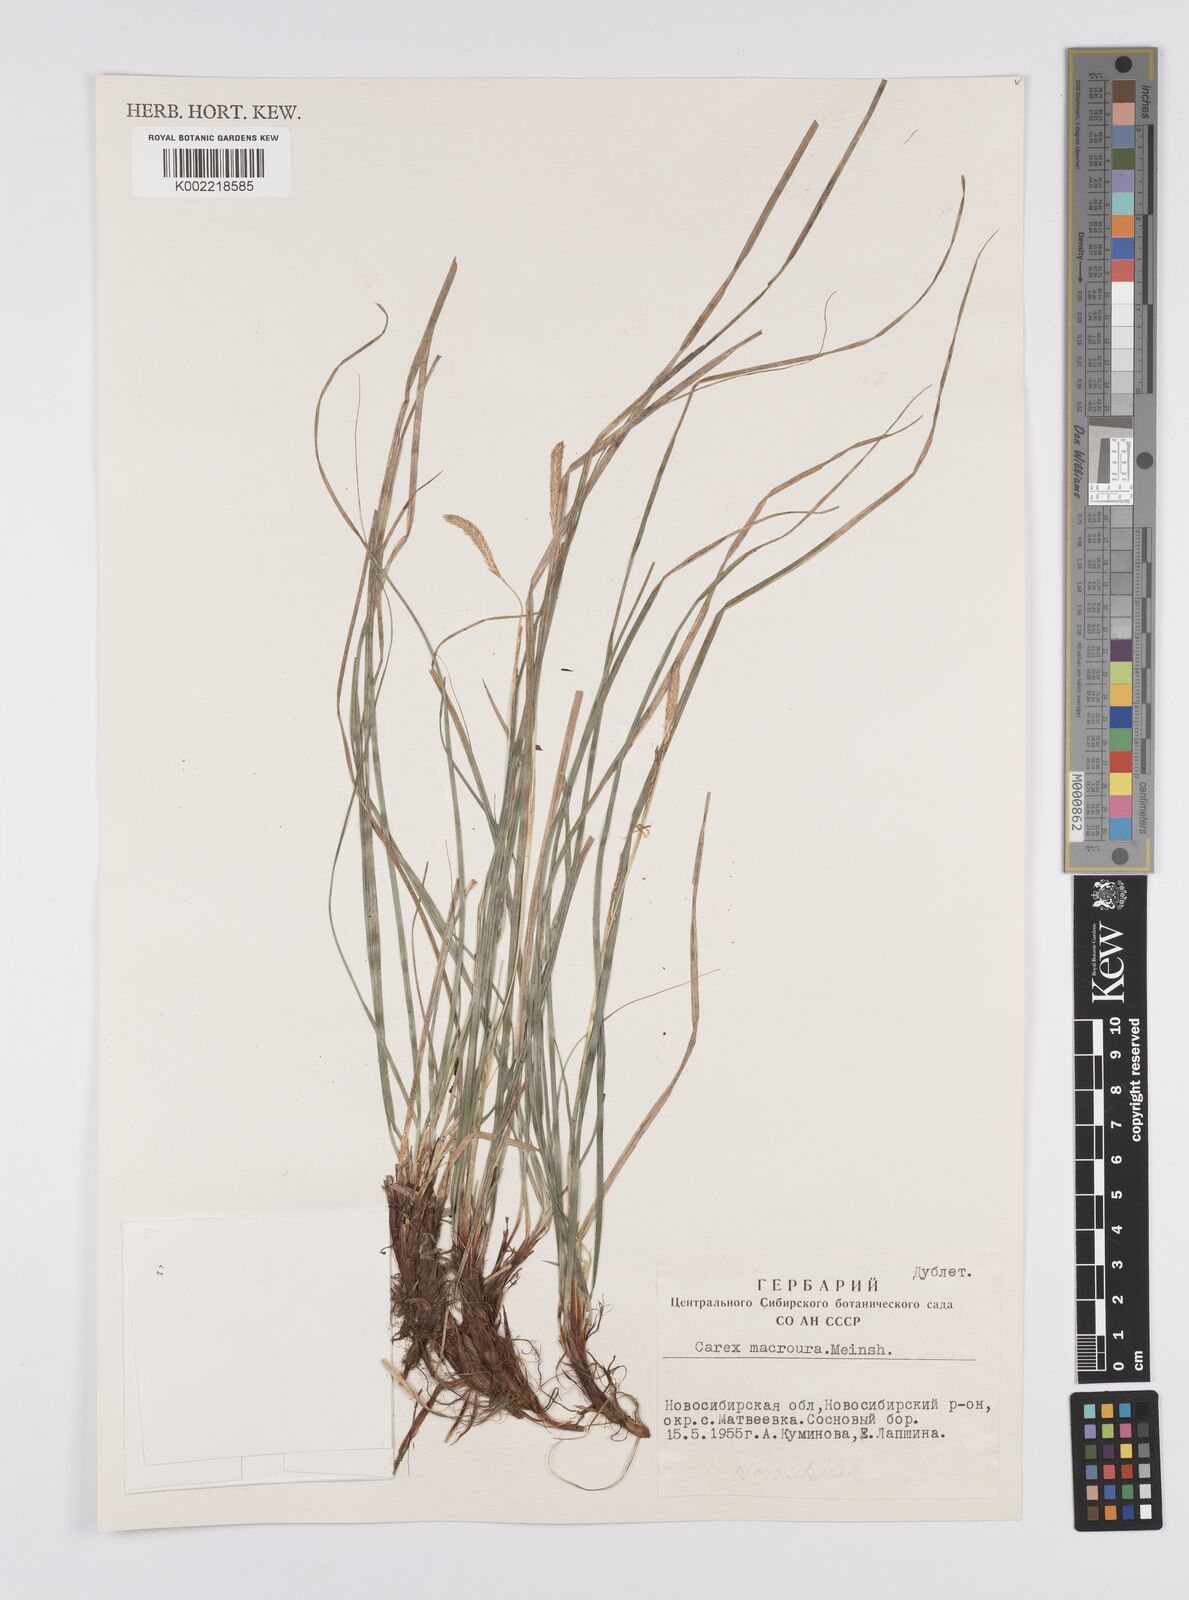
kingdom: Plantae
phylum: Tracheophyta
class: Liliopsida
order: Poales
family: Cyperaceae
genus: Carex
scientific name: Carex pediformis
